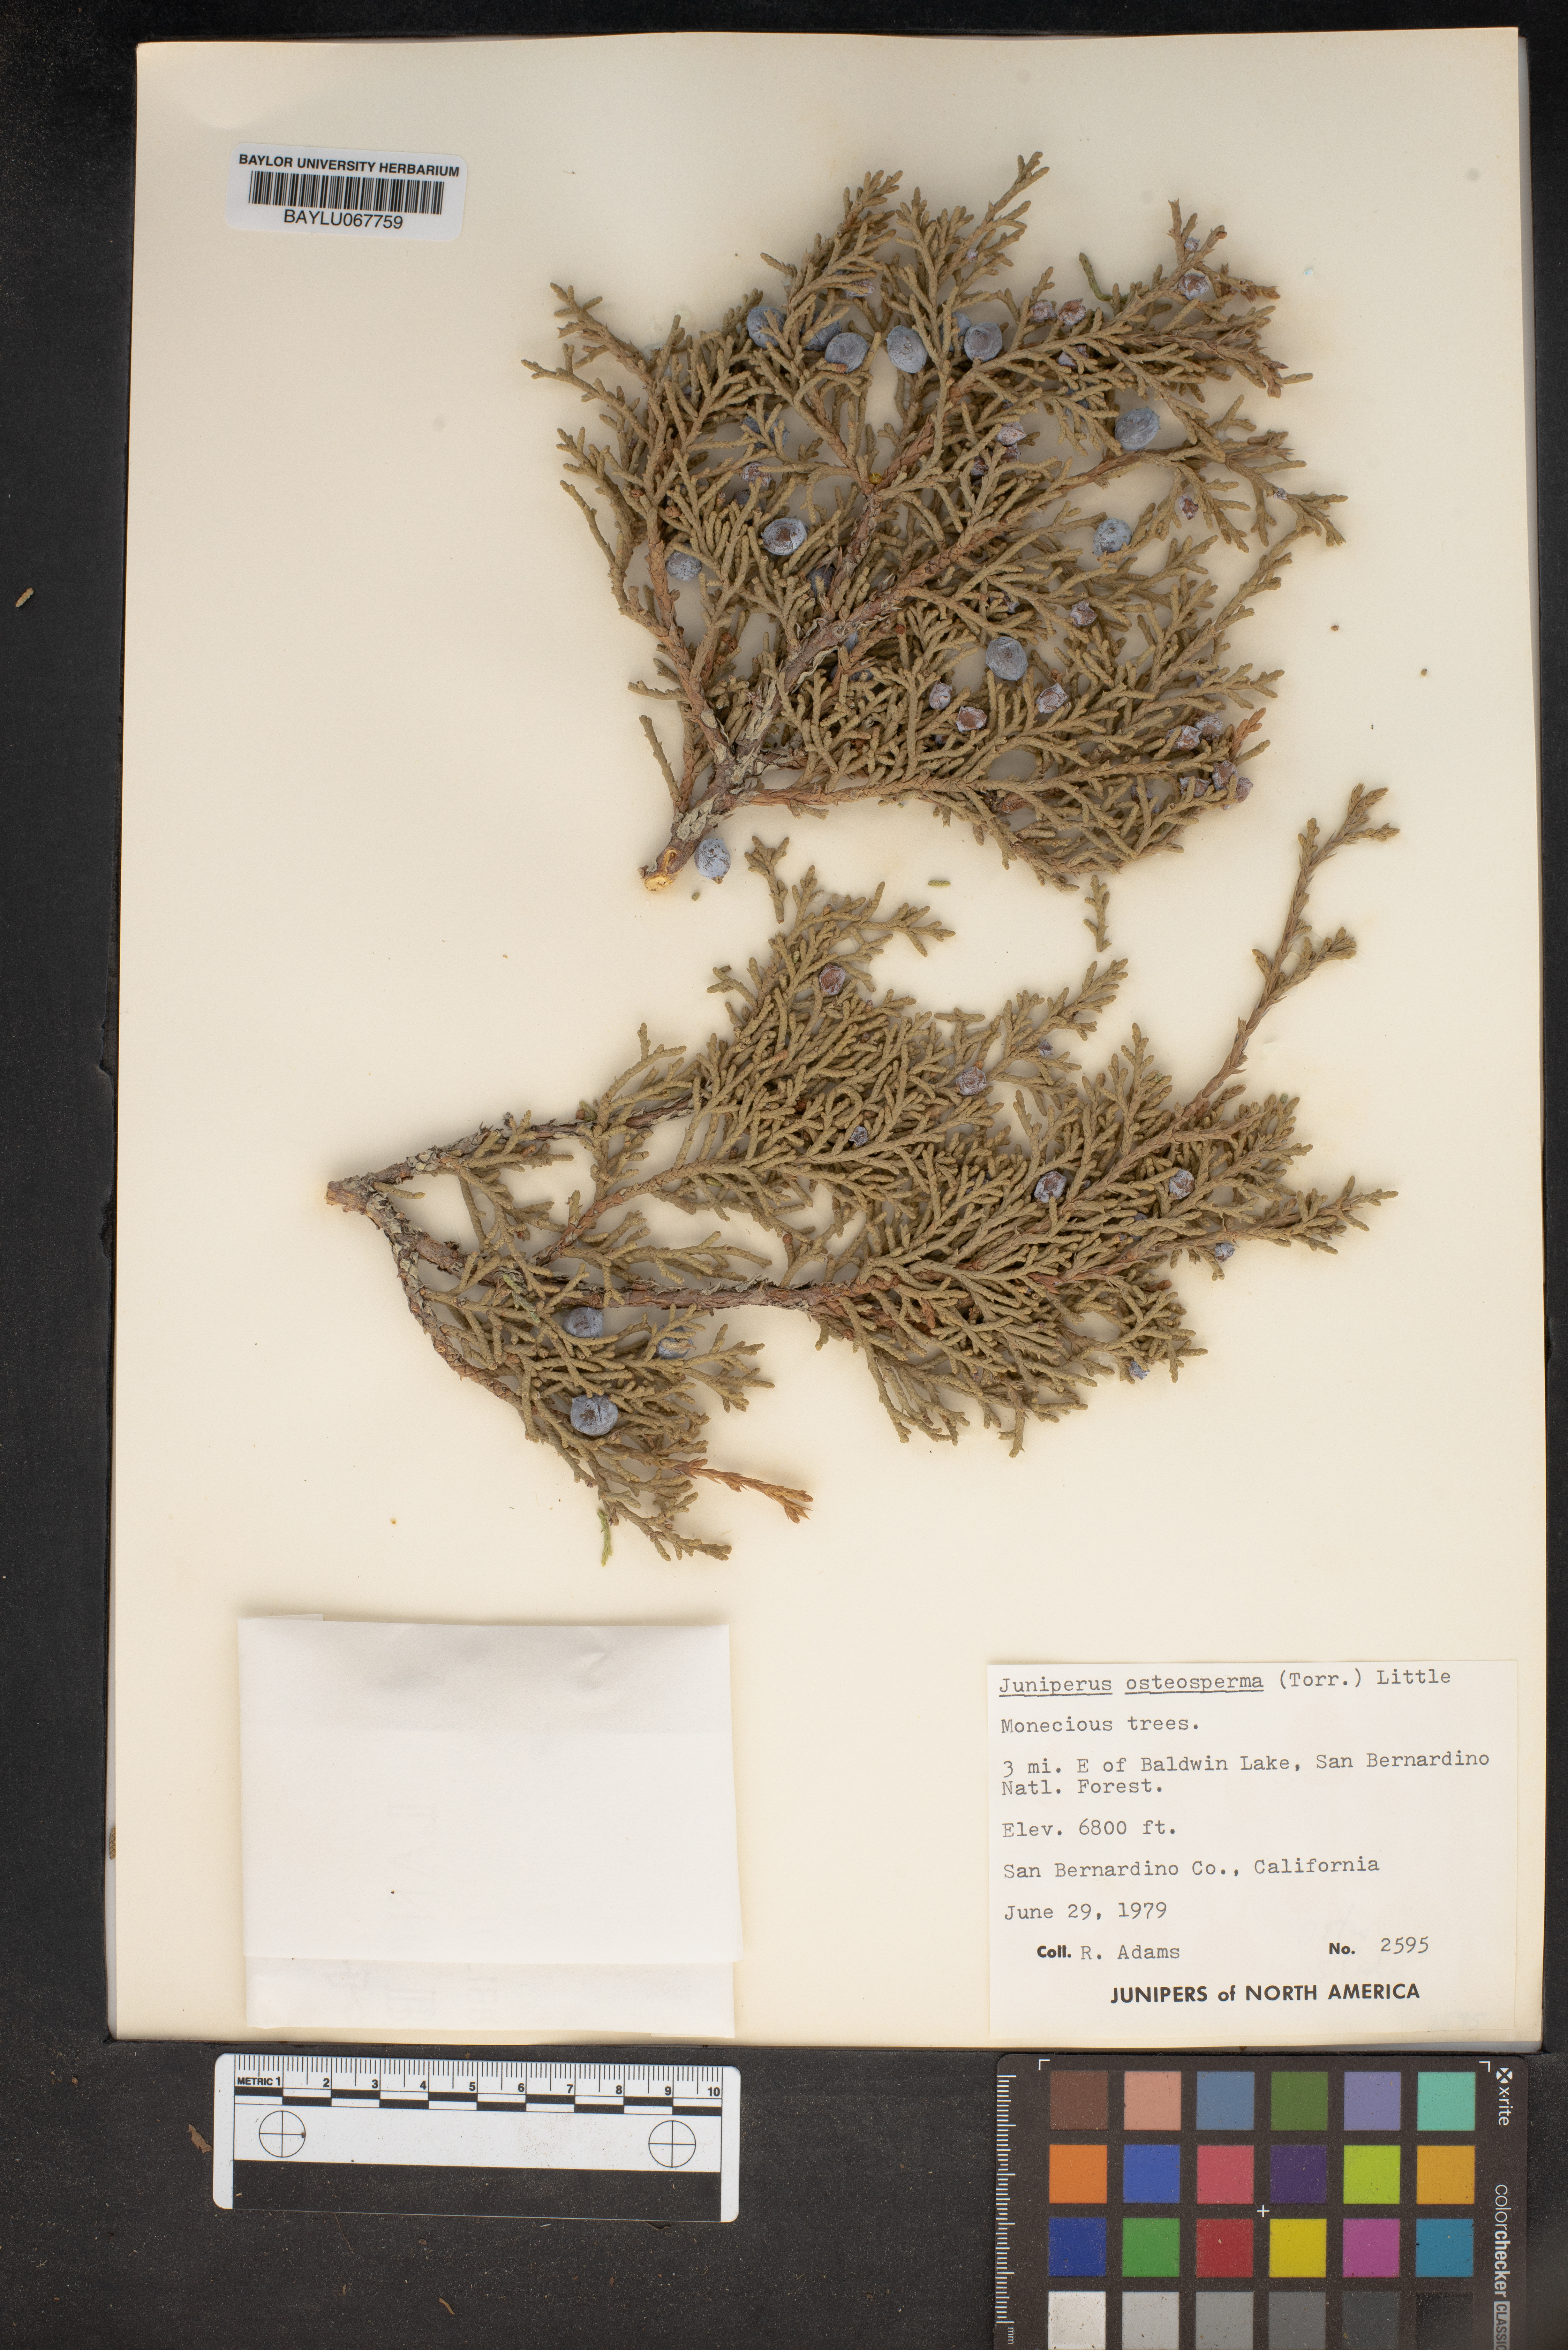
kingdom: Plantae
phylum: Tracheophyta
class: Pinopsida
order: Pinales
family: Cupressaceae
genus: Juniperus
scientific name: Juniperus osteosperma
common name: Utah juniper
